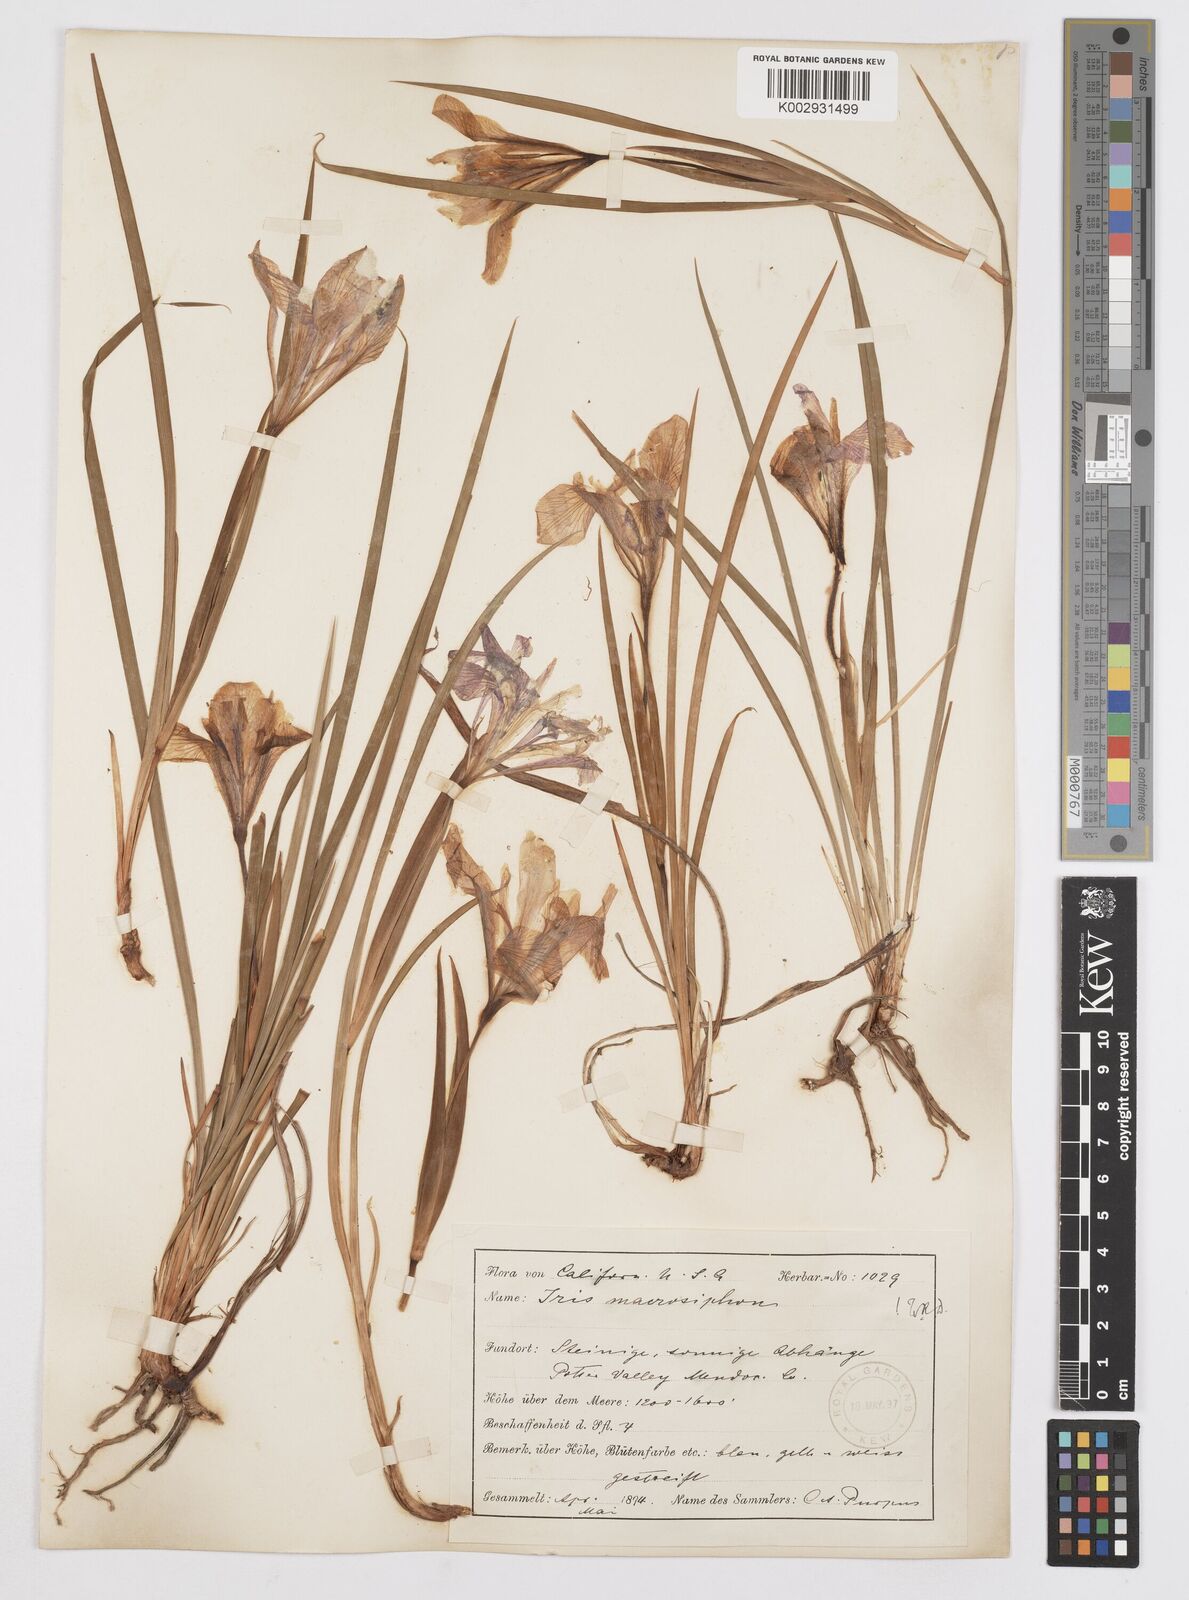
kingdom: Plantae
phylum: Tracheophyta
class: Liliopsida
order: Asparagales
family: Iridaceae
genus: Iris
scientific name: Iris macrosiphon
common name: Ground iris
